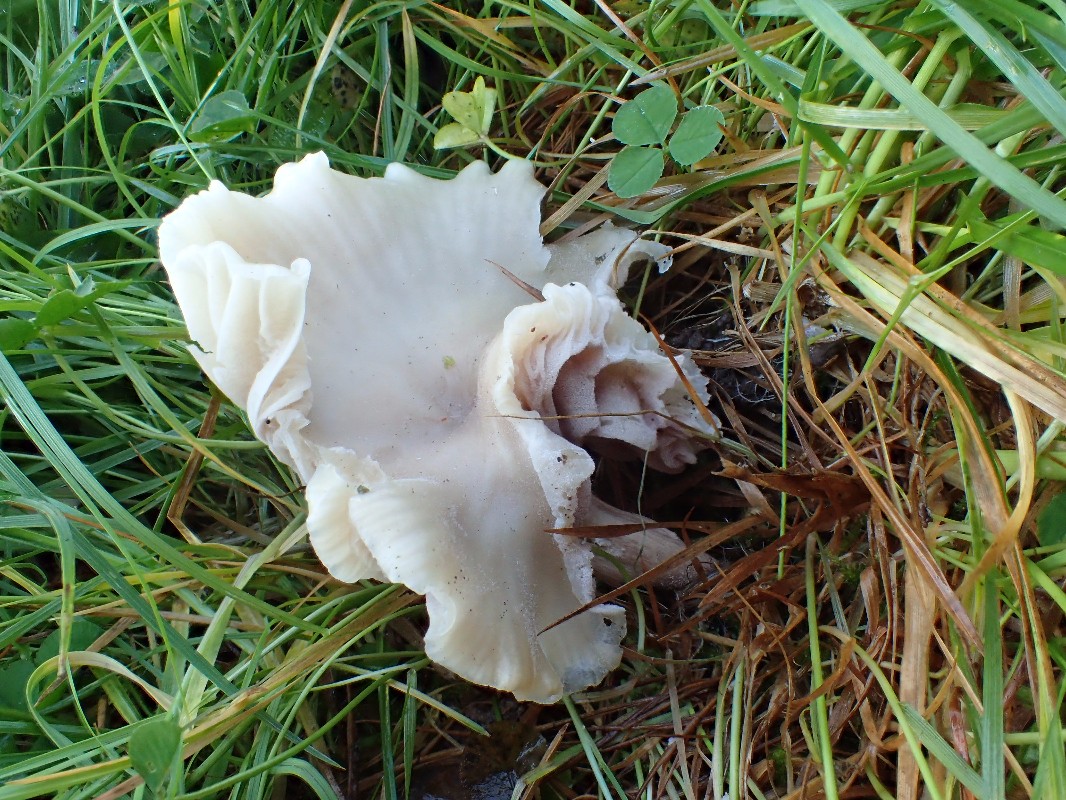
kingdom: Fungi
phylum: Basidiomycota
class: Agaricomycetes
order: Agaricales
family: Hygrophoraceae
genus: Cuphophyllus
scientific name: Cuphophyllus virgineus
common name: isabella-vokshat
